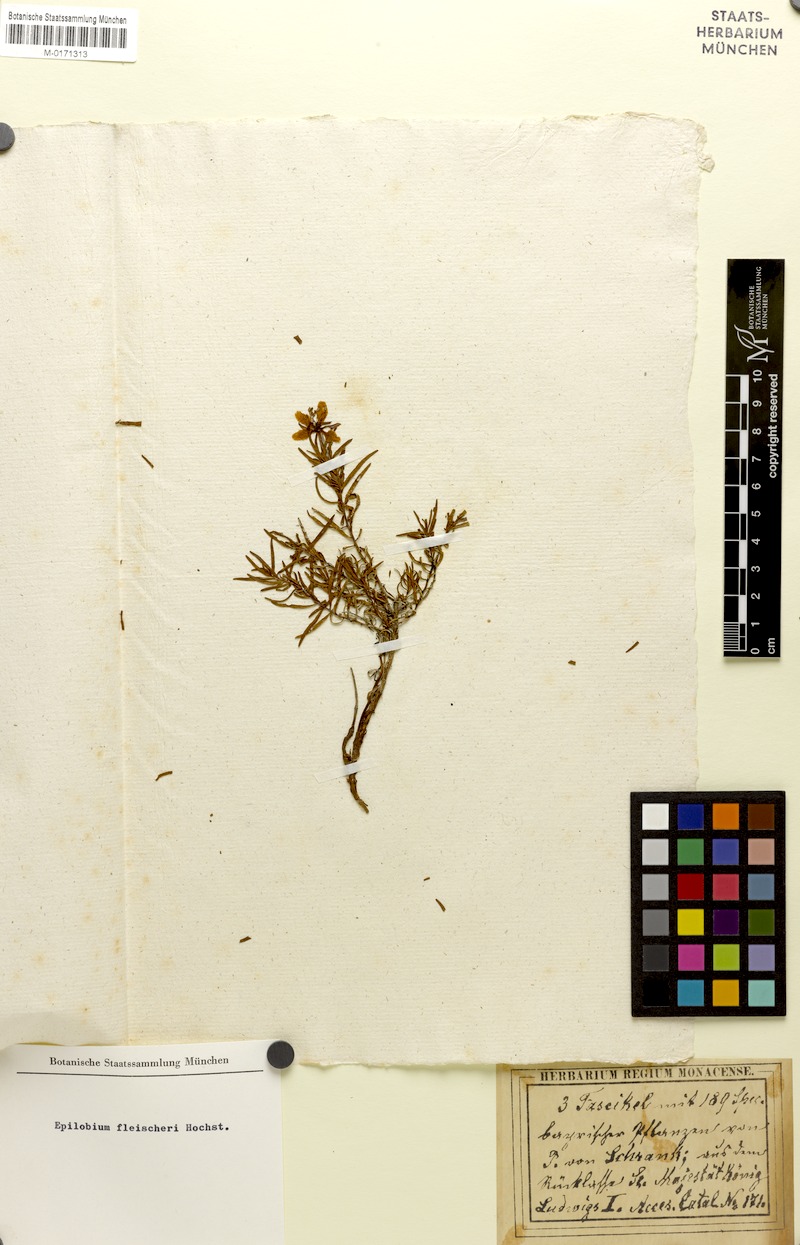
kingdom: Plantae
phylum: Tracheophyta
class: Magnoliopsida
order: Myrtales
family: Onagraceae
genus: Chamaenerion
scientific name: Chamaenerion fleischeri
